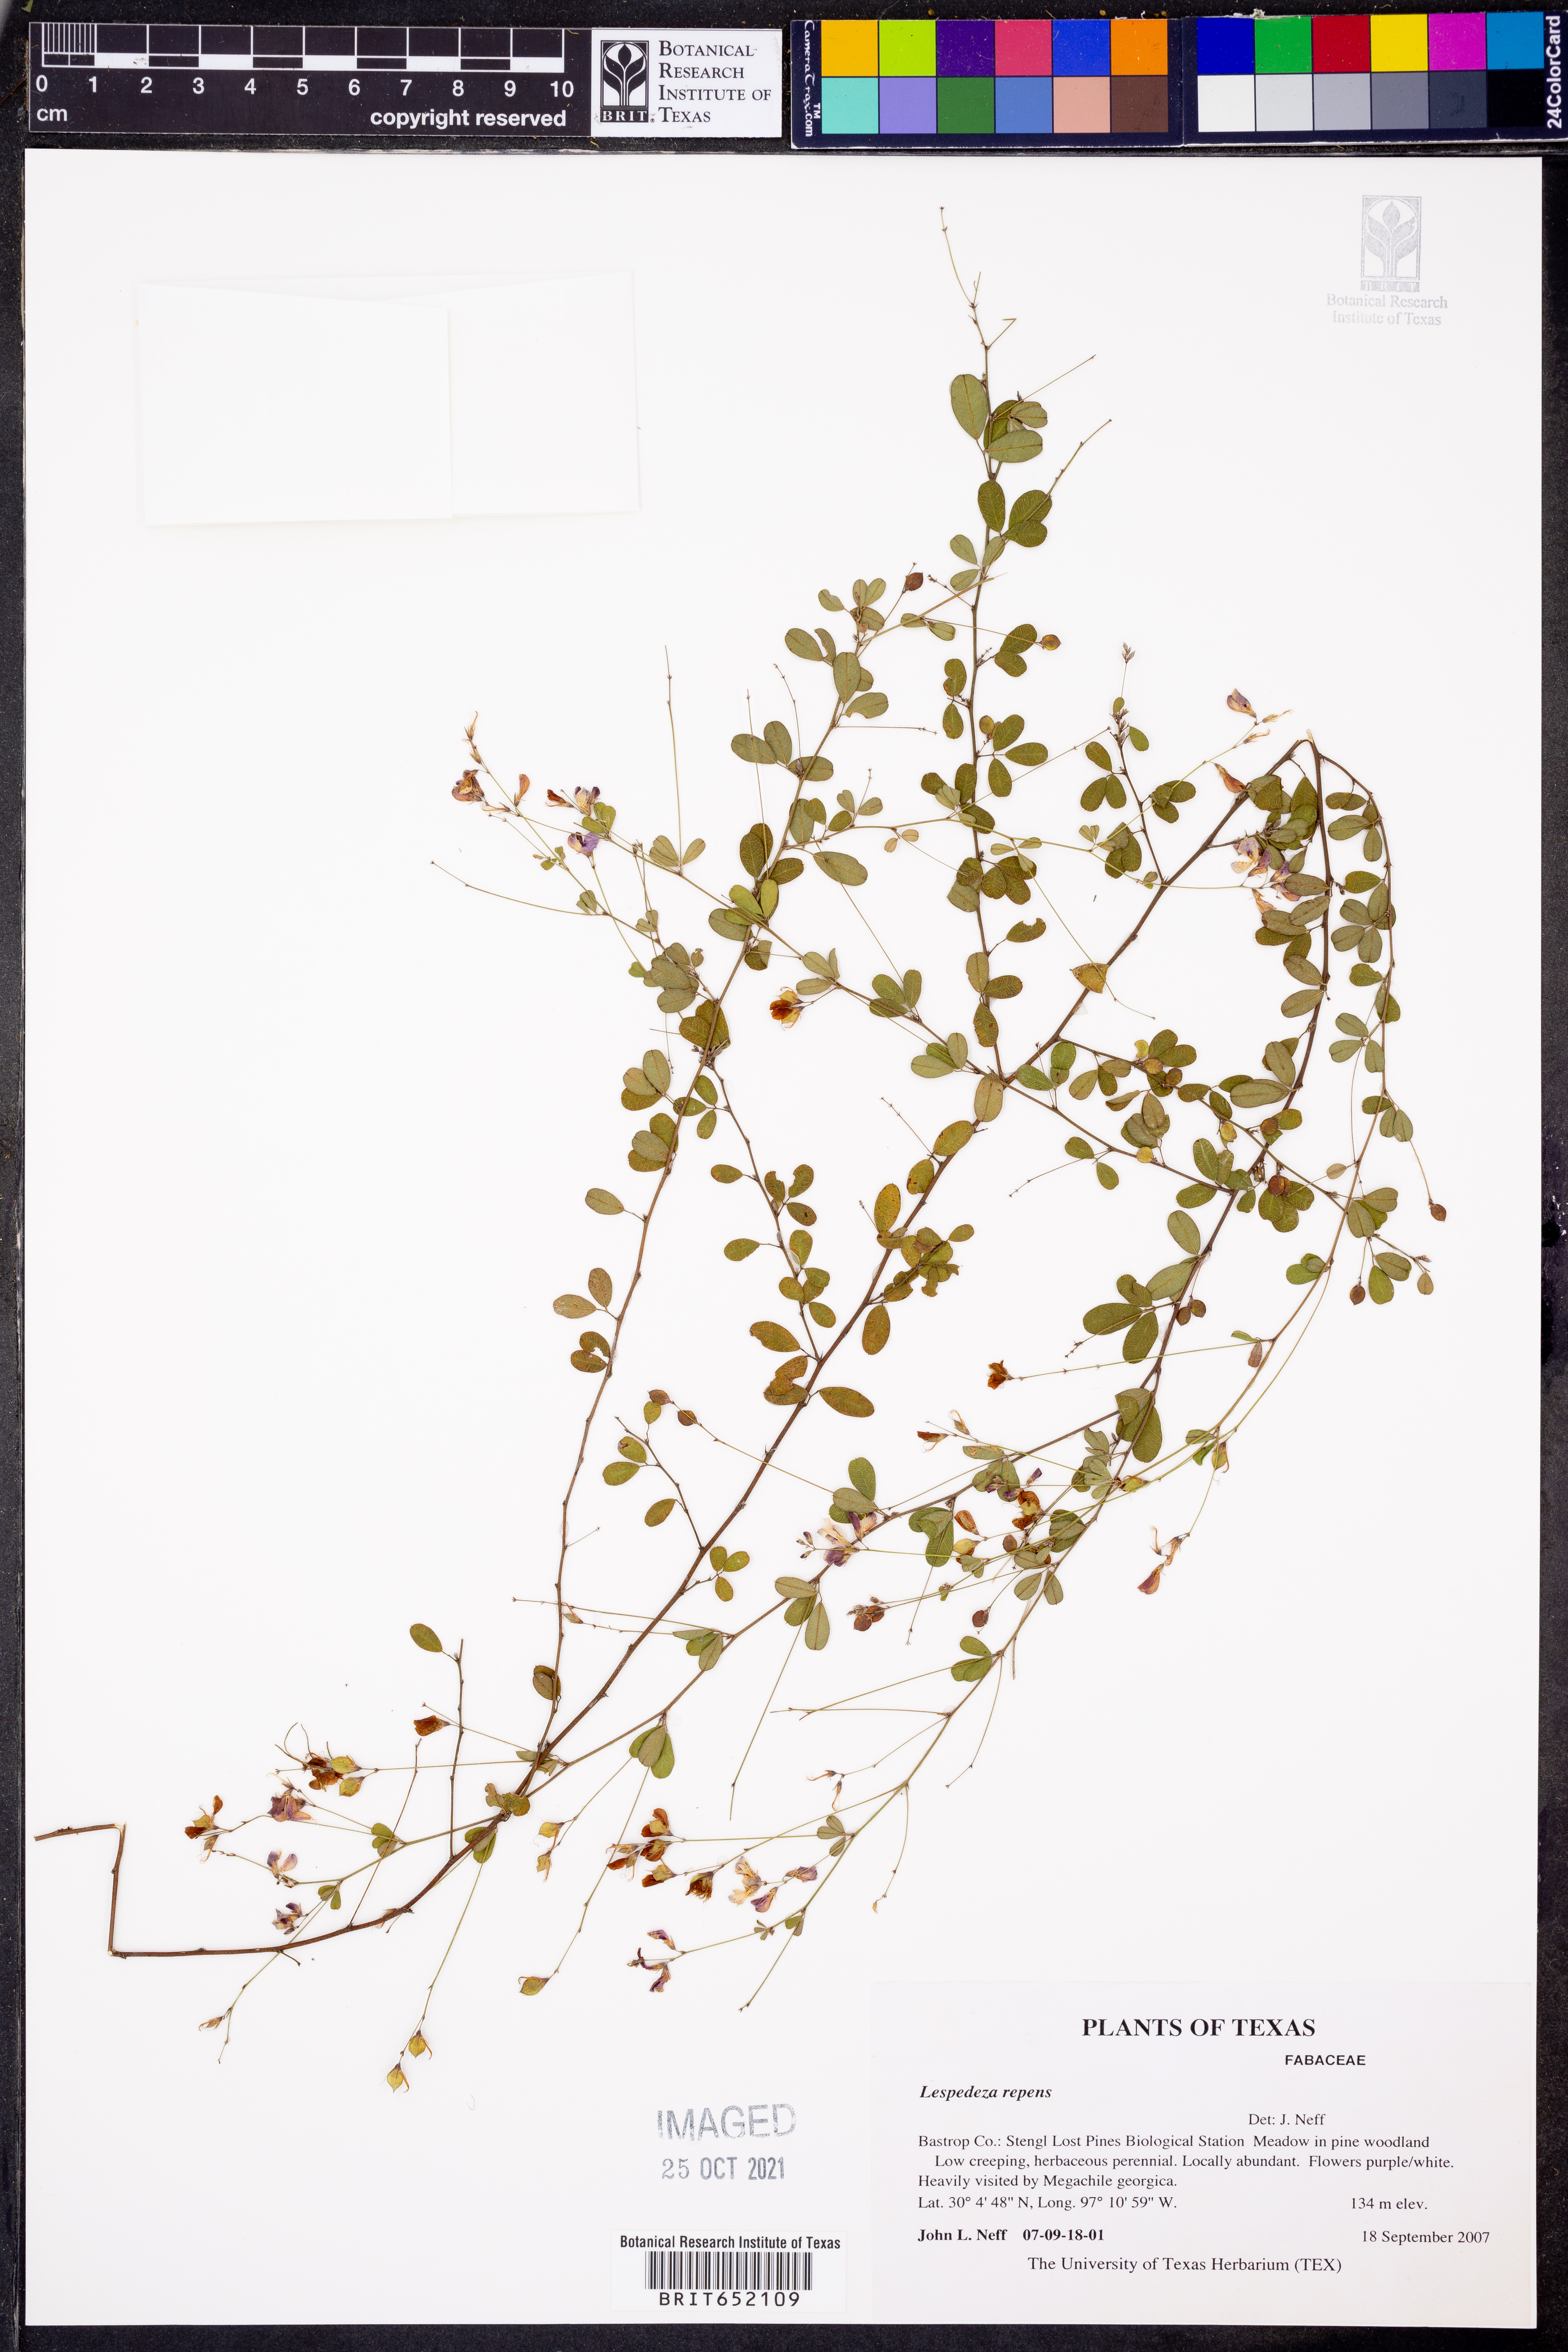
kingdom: Plantae
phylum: Tracheophyta
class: Magnoliopsida
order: Fabales
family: Fabaceae
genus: Lespedeza
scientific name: Lespedeza repens
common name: Creeping bush-clover
